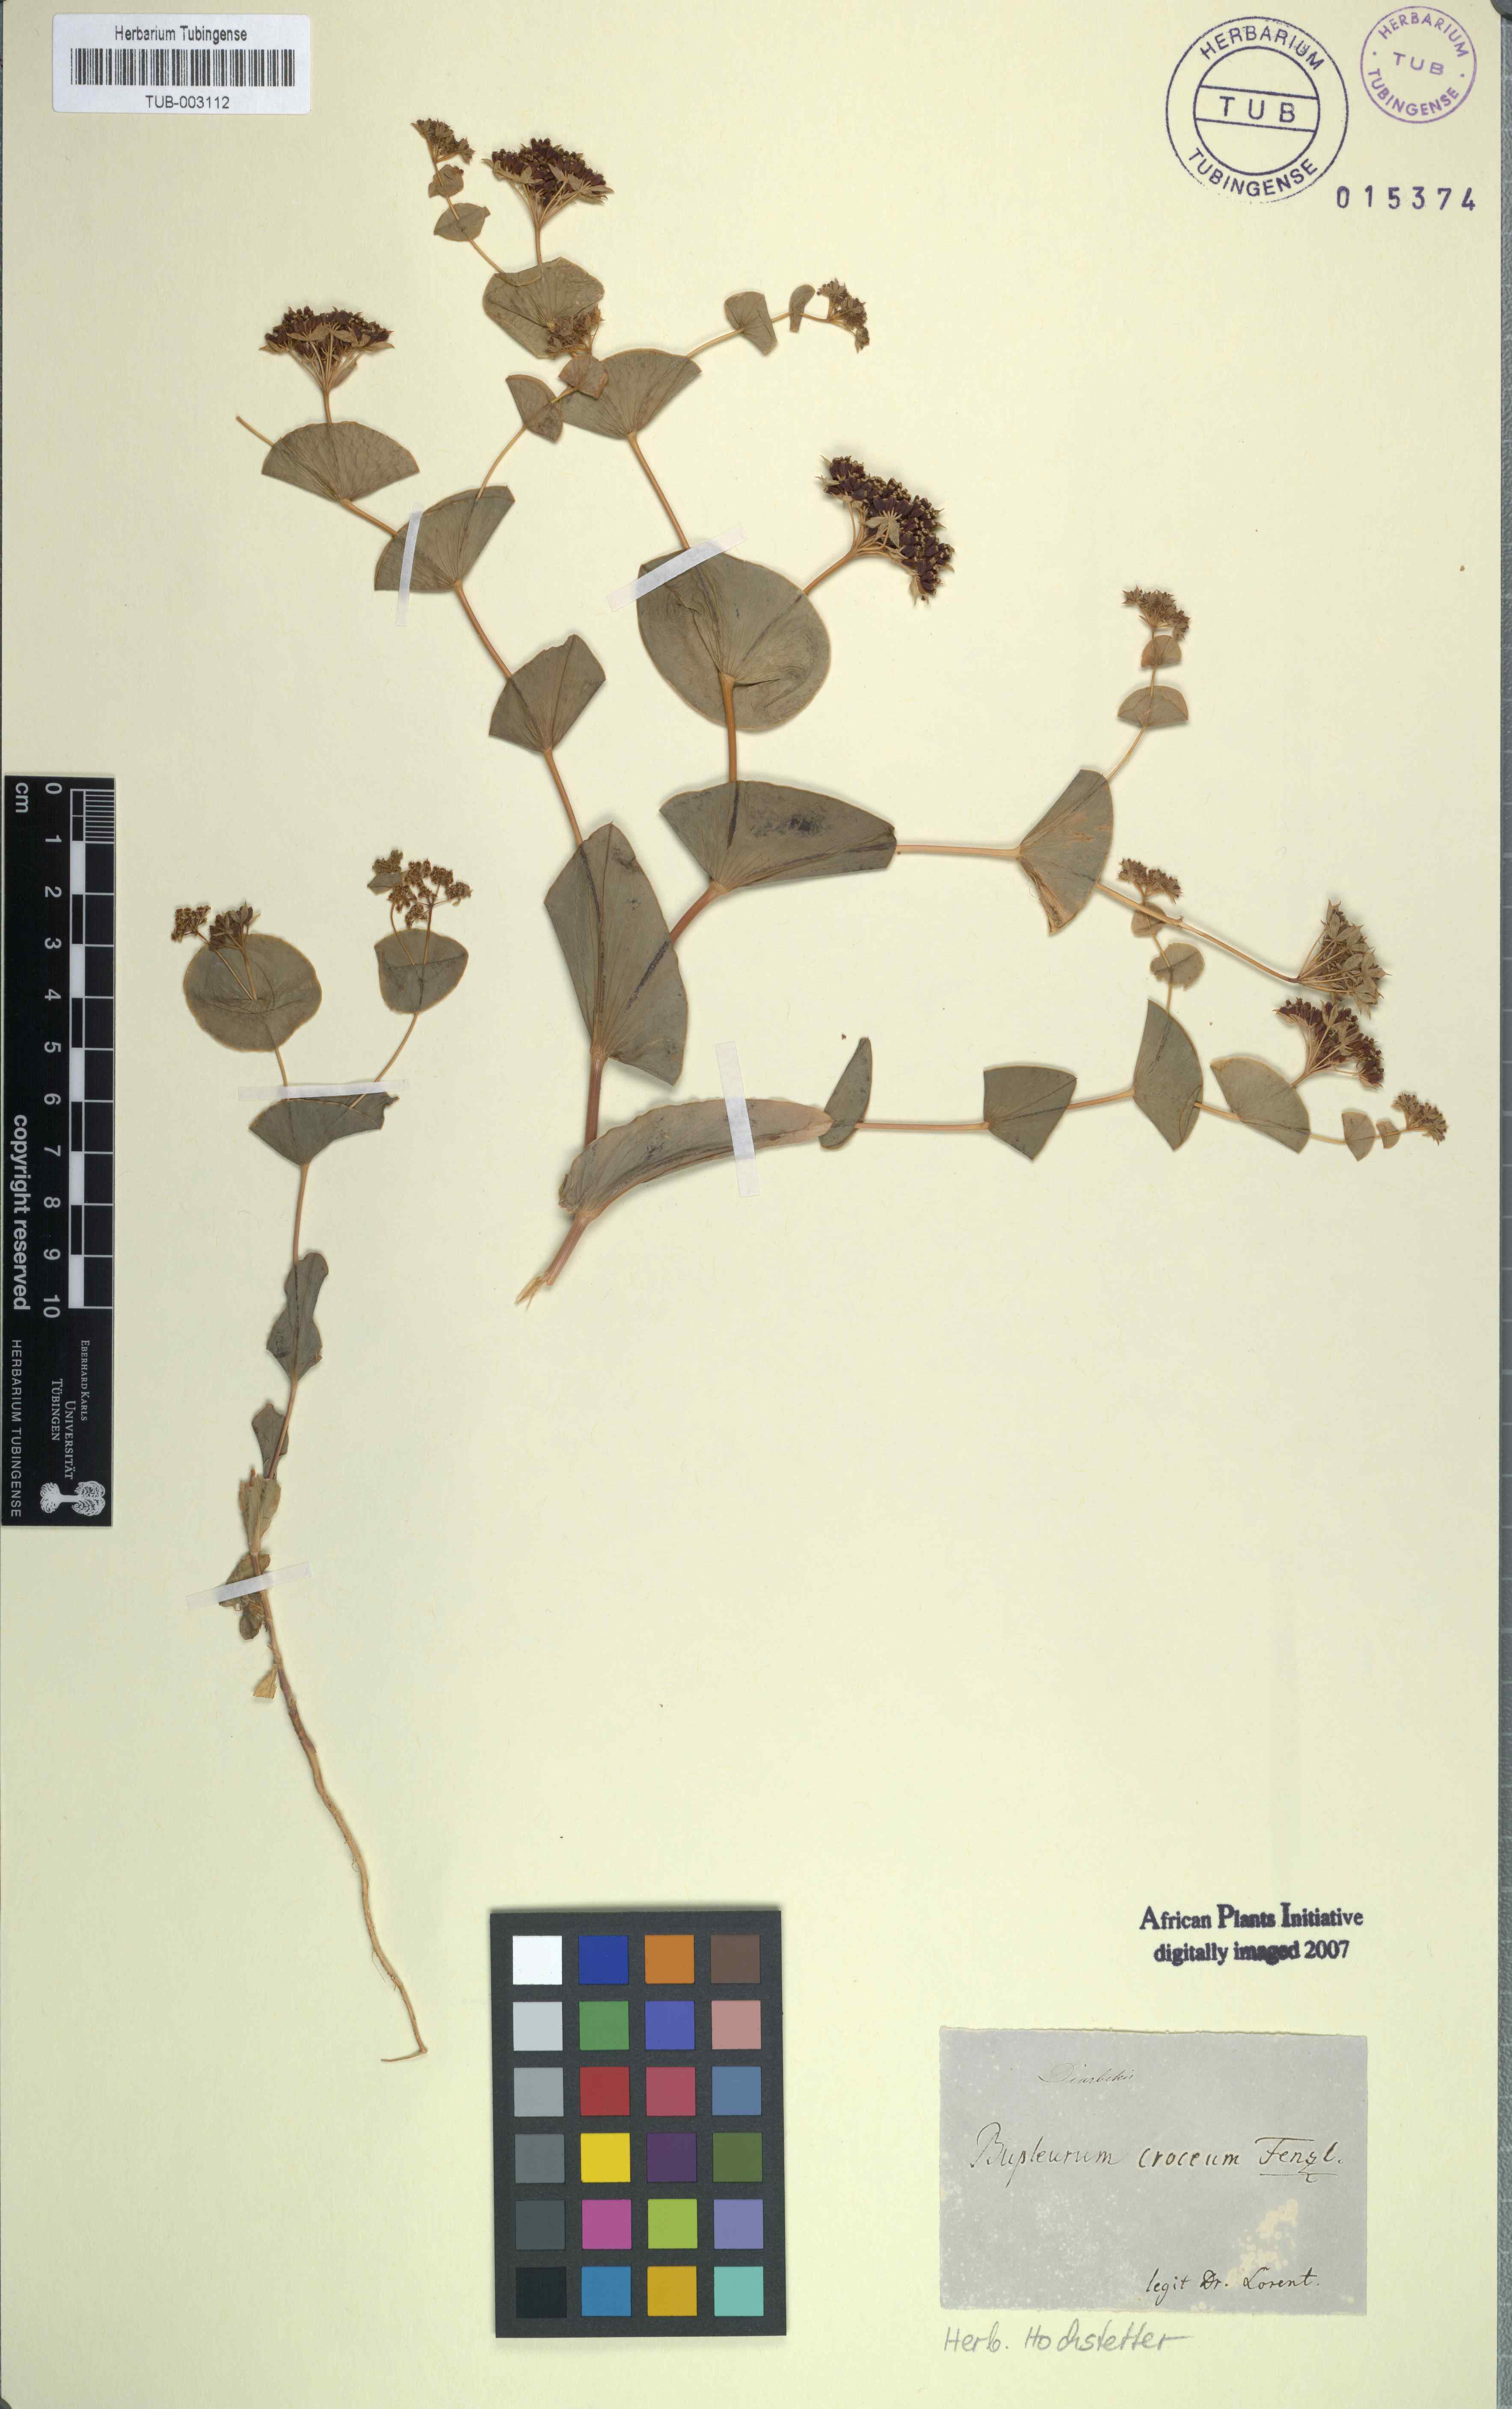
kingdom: Plantae
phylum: Tracheophyta
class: Magnoliopsida
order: Apiales
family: Apiaceae
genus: Bupleurum
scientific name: Bupleurum croceum
